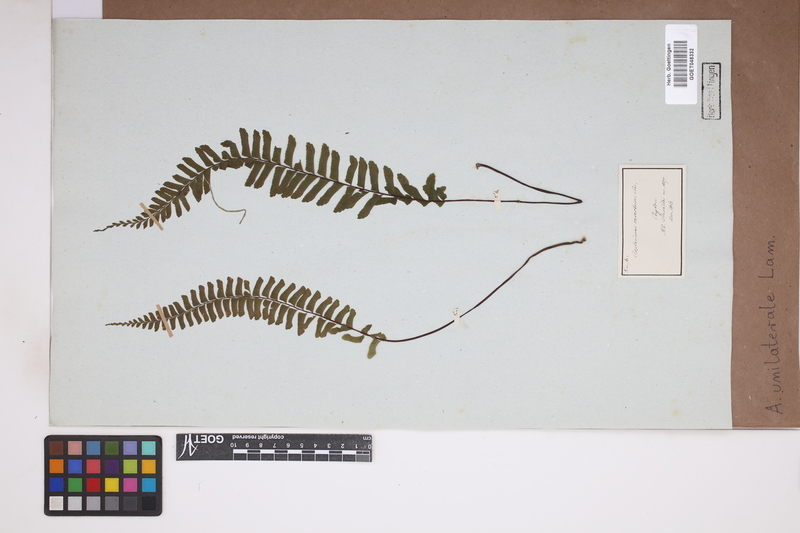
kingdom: Plantae
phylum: Tracheophyta
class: Polypodiopsida
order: Polypodiales
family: Aspleniaceae
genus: Hymenasplenium
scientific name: Hymenasplenium unilaterale
